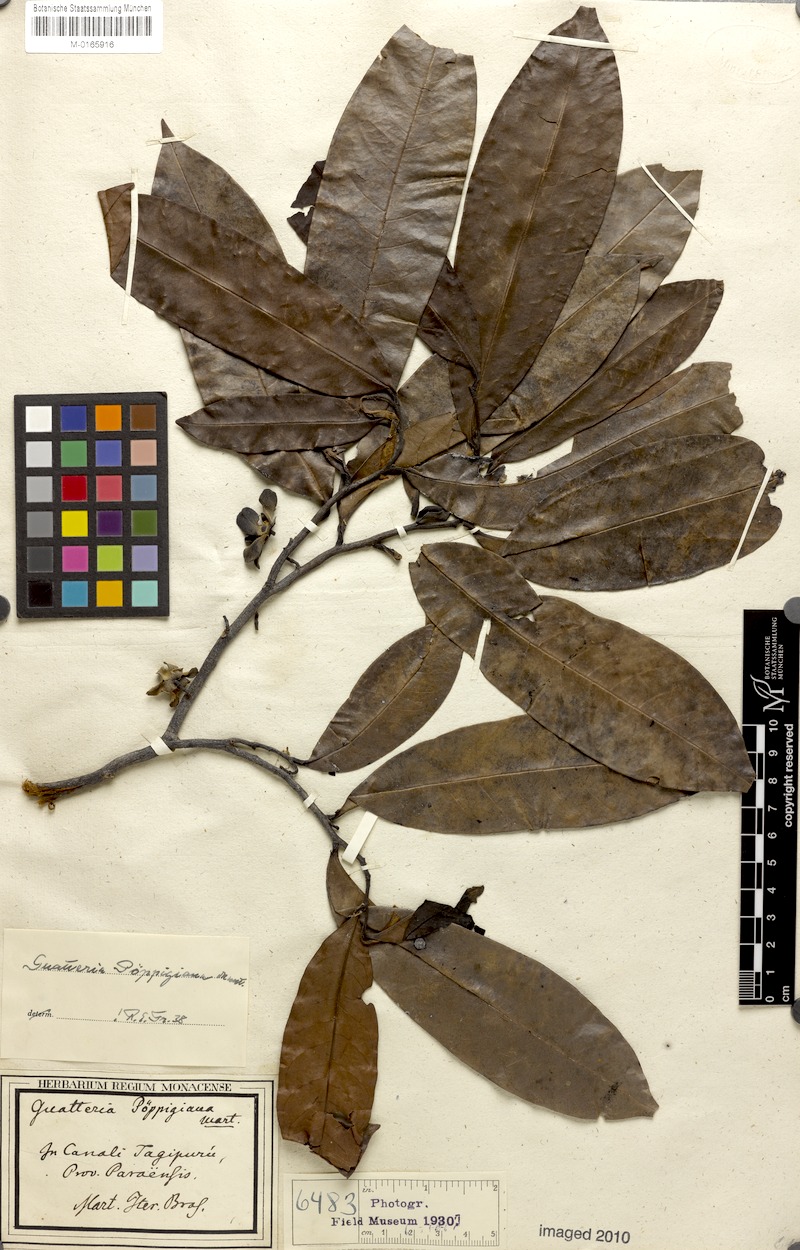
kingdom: Plantae
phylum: Tracheophyta
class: Magnoliopsida
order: Magnoliales
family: Annonaceae
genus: Guatteria
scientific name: Guatteria poeppigiana
